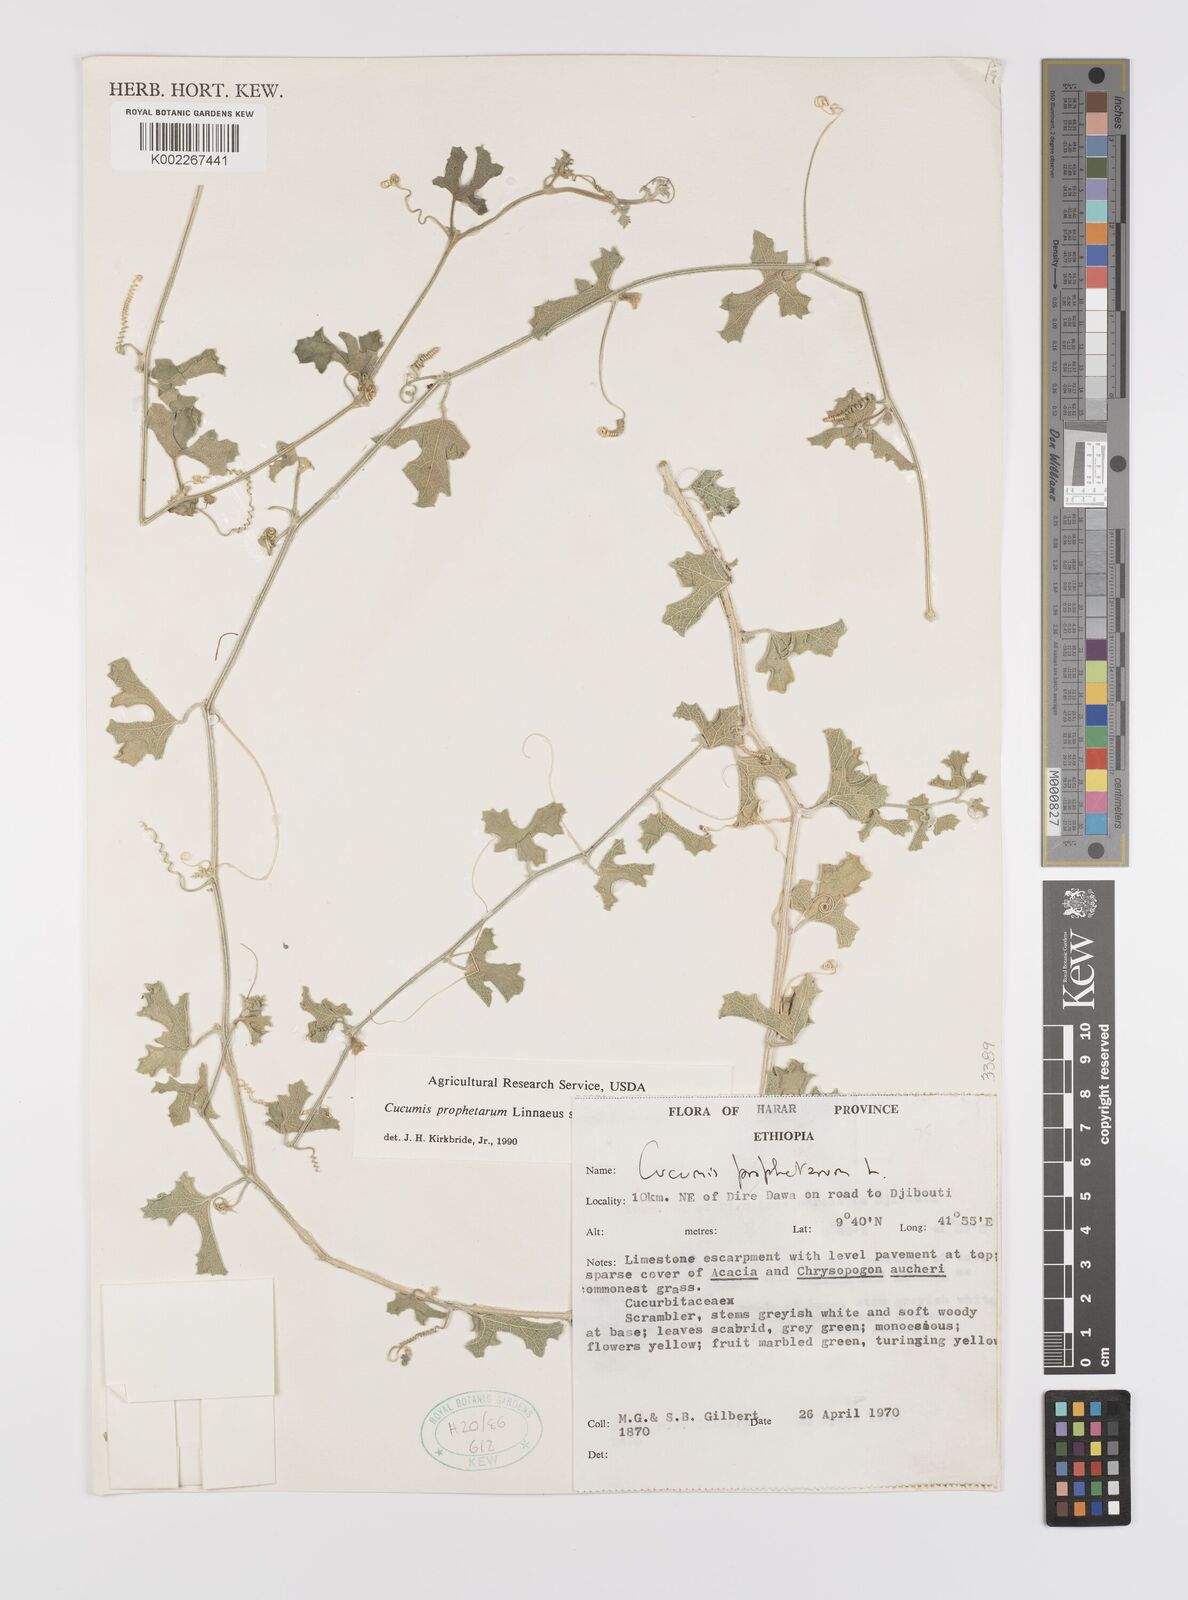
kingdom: Plantae
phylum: Tracheophyta
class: Magnoliopsida
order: Cucurbitales
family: Cucurbitaceae
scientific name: Cucurbitaceae
